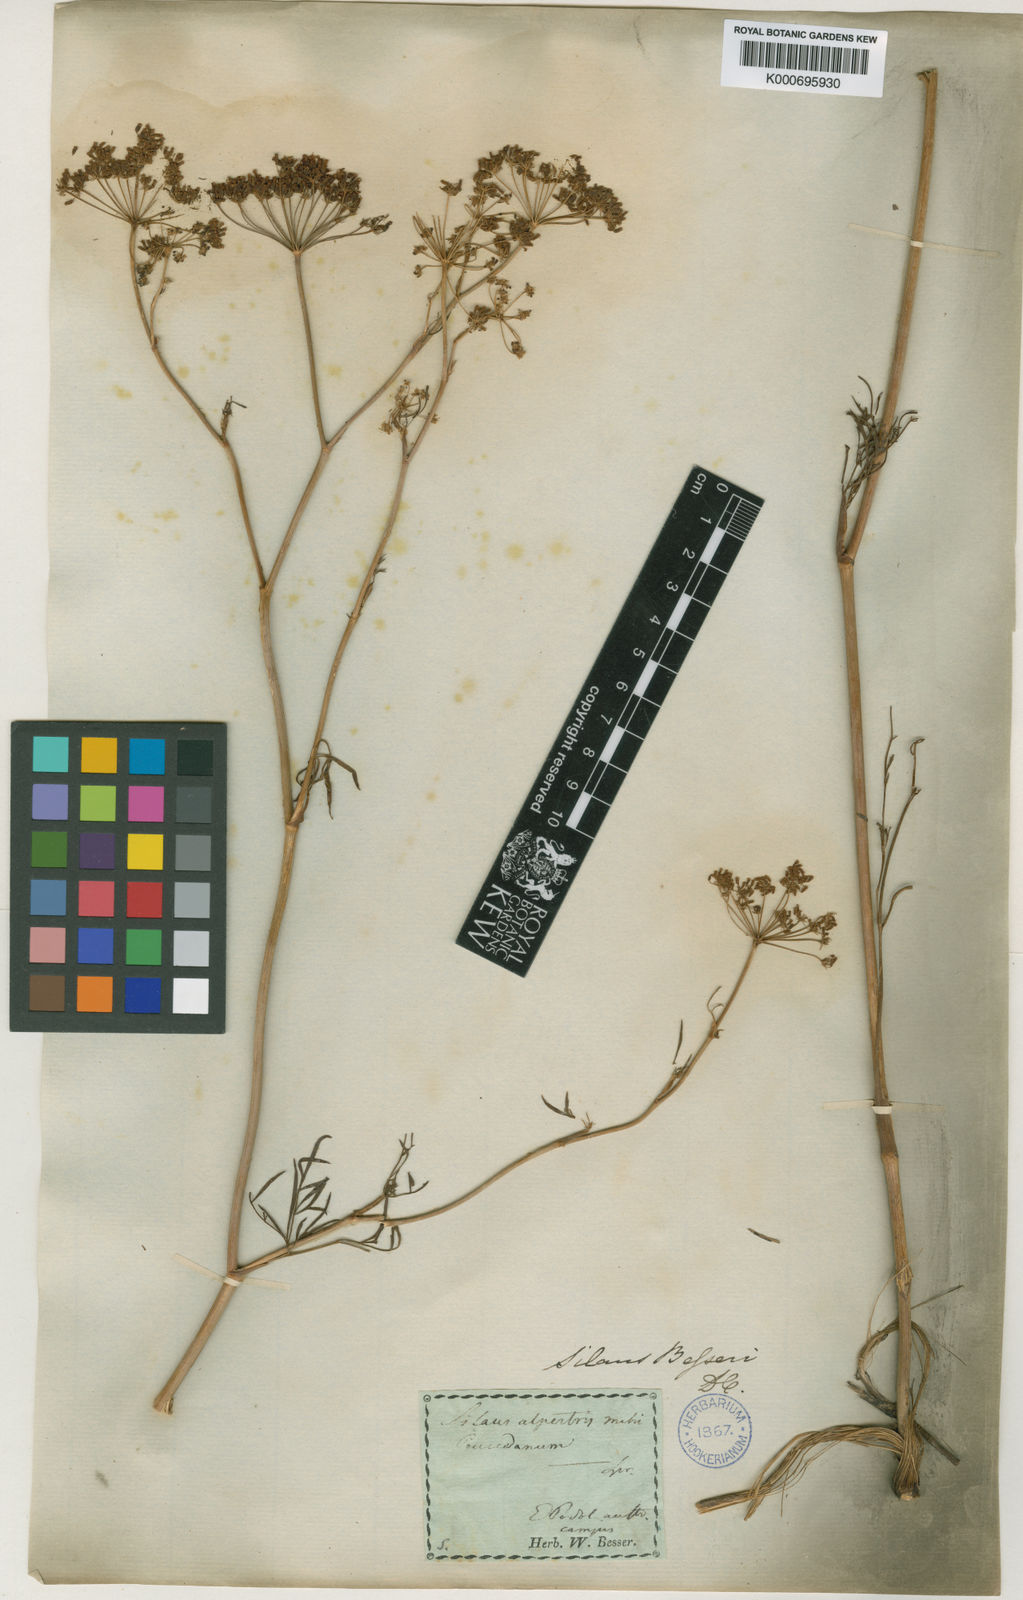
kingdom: Plantae
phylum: Tracheophyta
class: Magnoliopsida
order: Apiales
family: Apiaceae
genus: Silaum
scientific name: Silaum silaus
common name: Pepper-saxifrage
